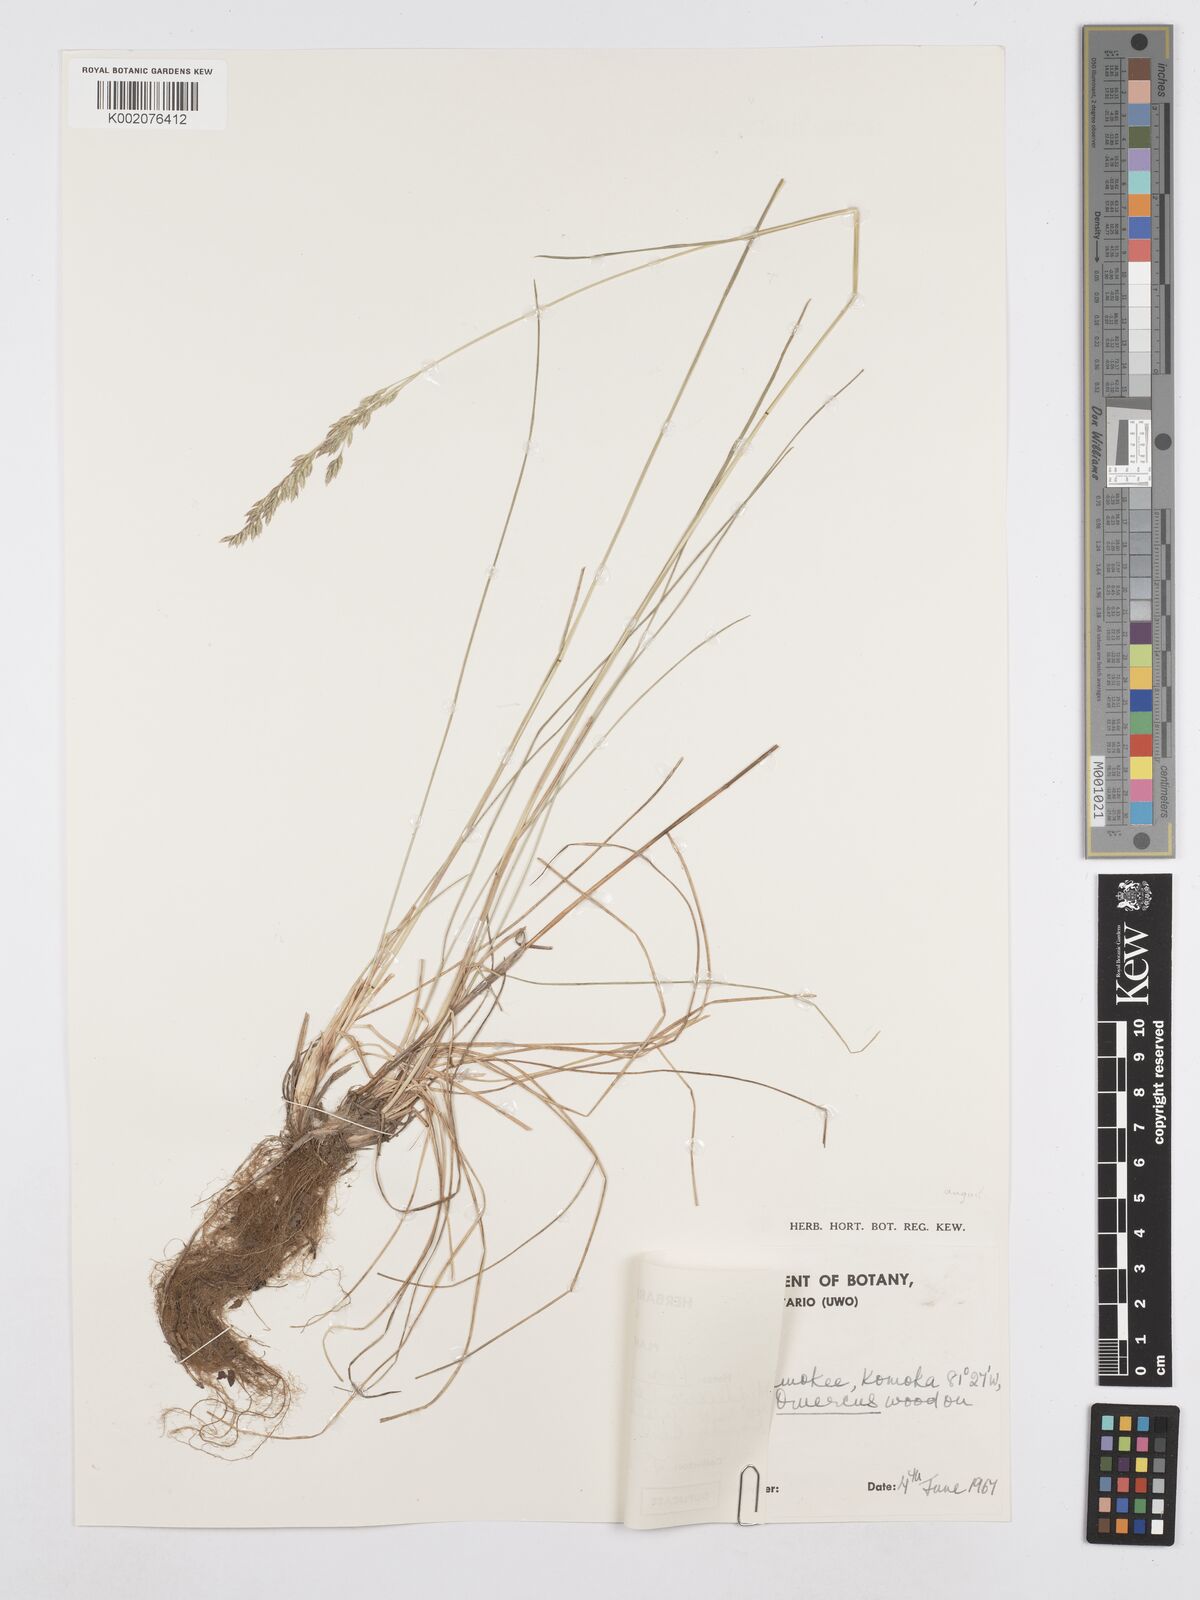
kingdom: Plantae
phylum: Tracheophyta
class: Liliopsida
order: Poales
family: Poaceae
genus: Poa
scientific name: Poa angustifolia
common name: Narrow-leaved meadow-grass
